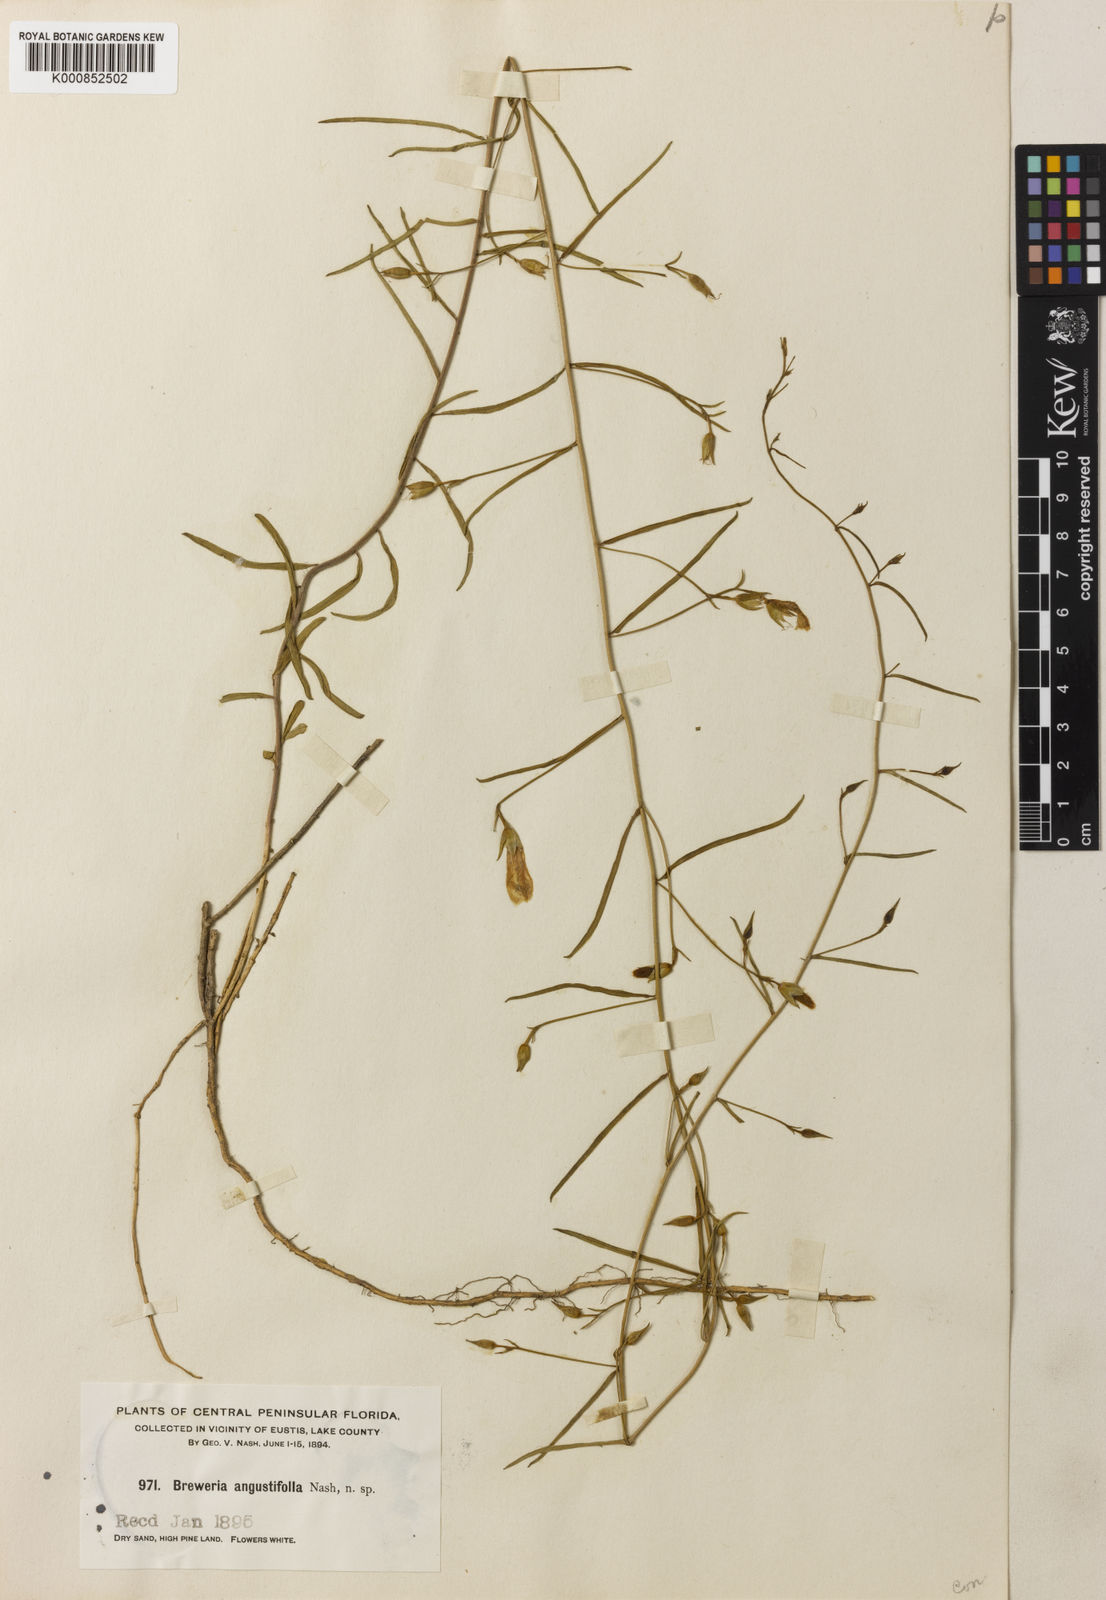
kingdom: Plantae
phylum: Tracheophyta
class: Magnoliopsida
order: Solanales
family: Convolvulaceae
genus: Stylisma
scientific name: Stylisma patens
